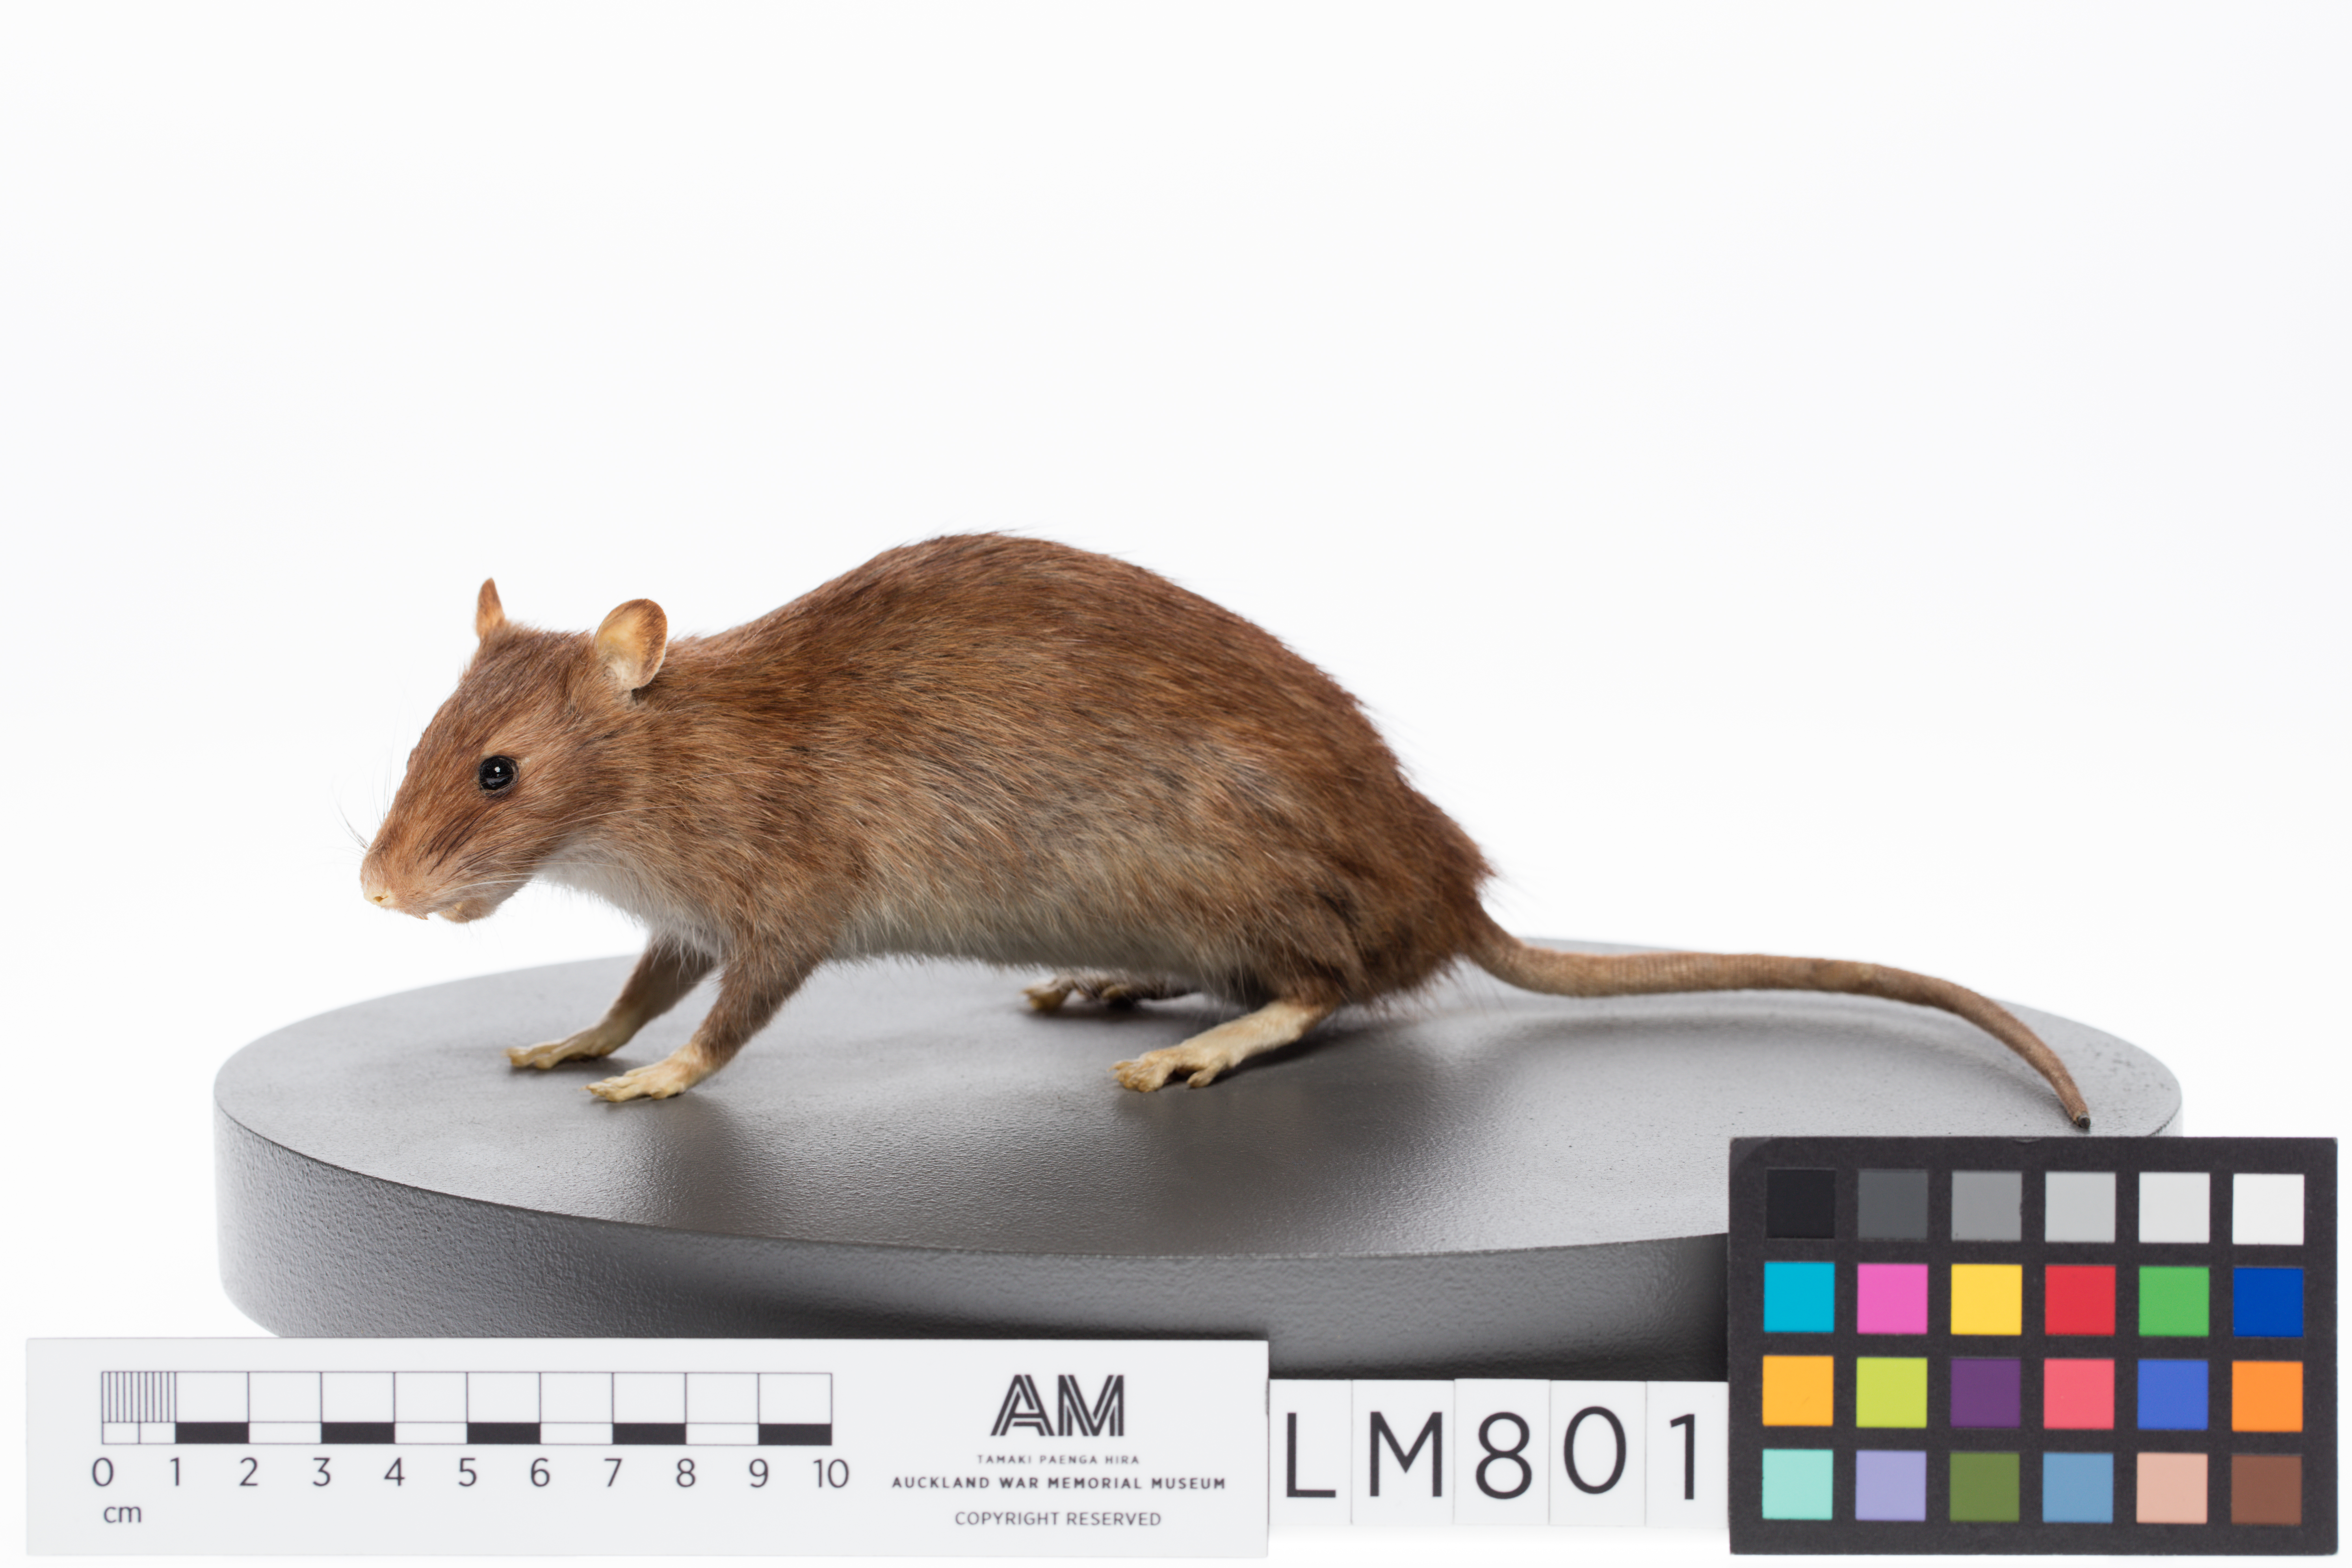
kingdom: Animalia
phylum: Chordata
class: Mammalia
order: Rodentia
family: Muridae
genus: Rattus
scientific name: Rattus norvegicus
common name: Brown rat
